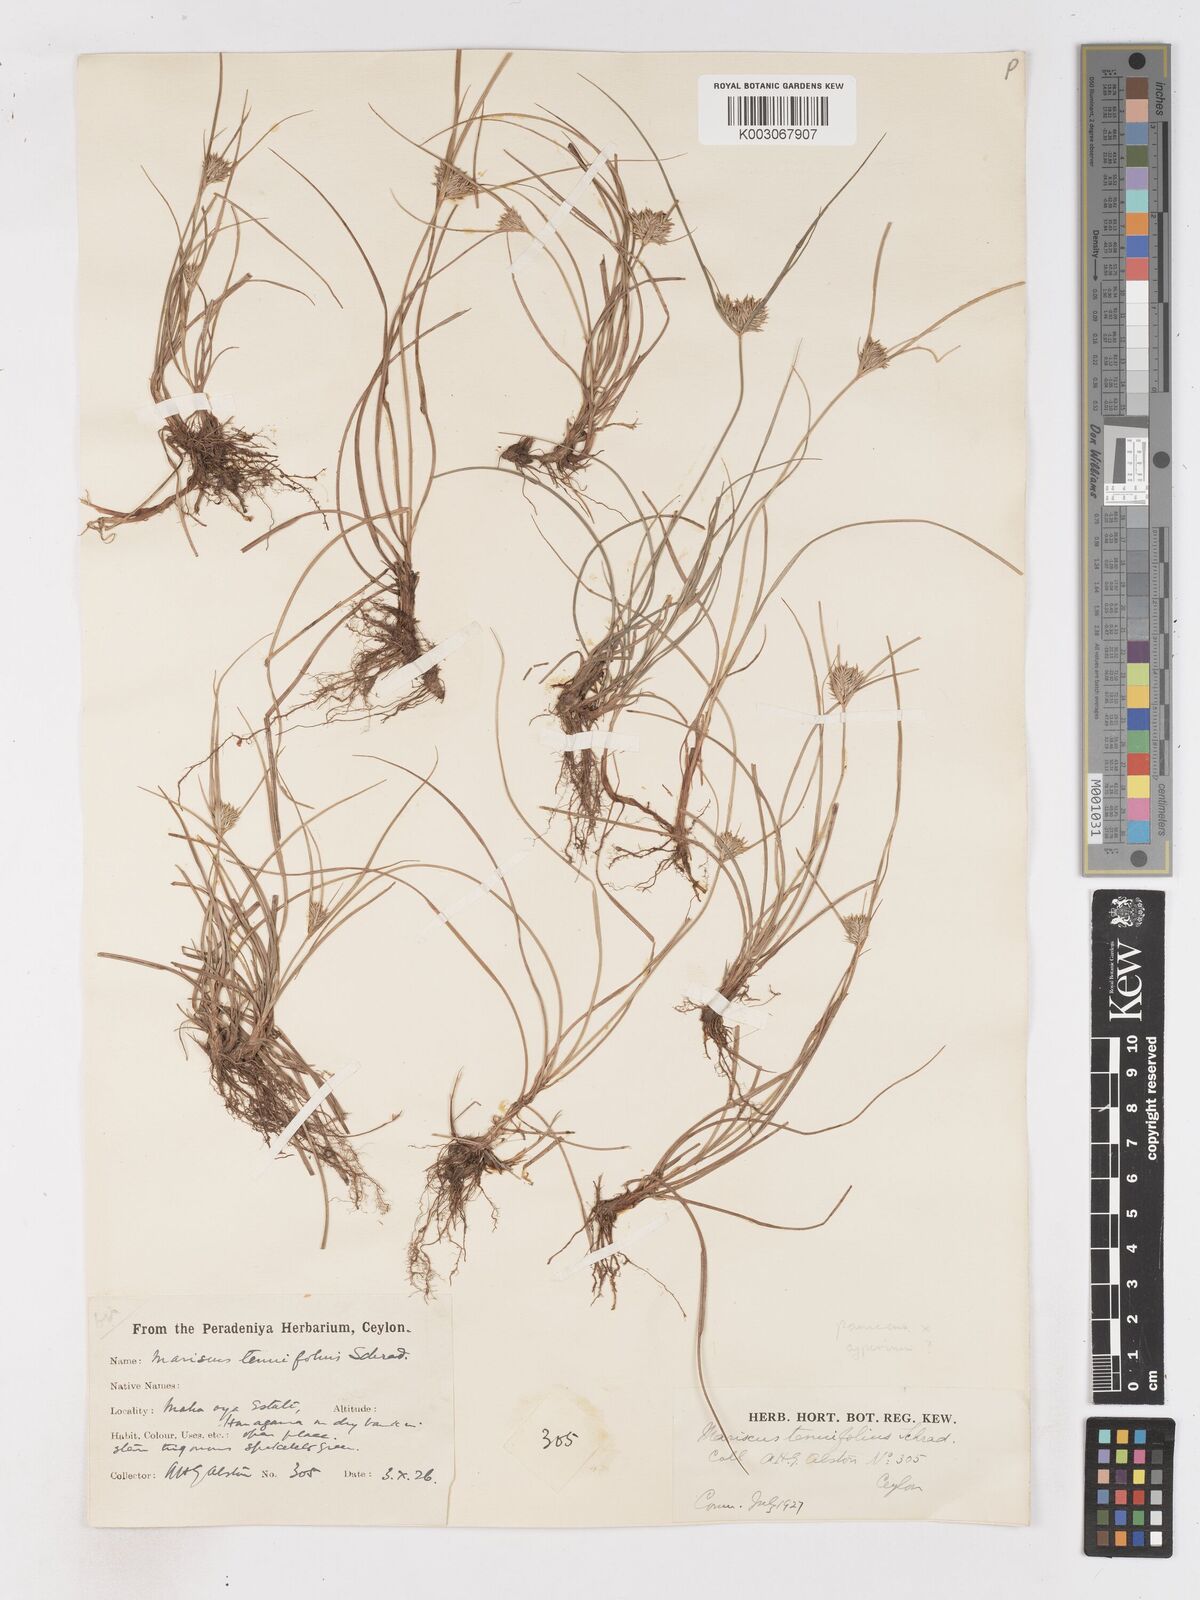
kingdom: Plantae
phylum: Tracheophyta
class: Liliopsida
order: Poales
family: Cyperaceae
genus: Cyperus
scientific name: Cyperus cyperinus
